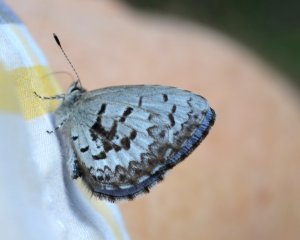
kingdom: Animalia
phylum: Arthropoda
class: Insecta
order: Lepidoptera
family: Lycaenidae
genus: Celastrina
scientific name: Celastrina lucia
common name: Northern Spring Azure
